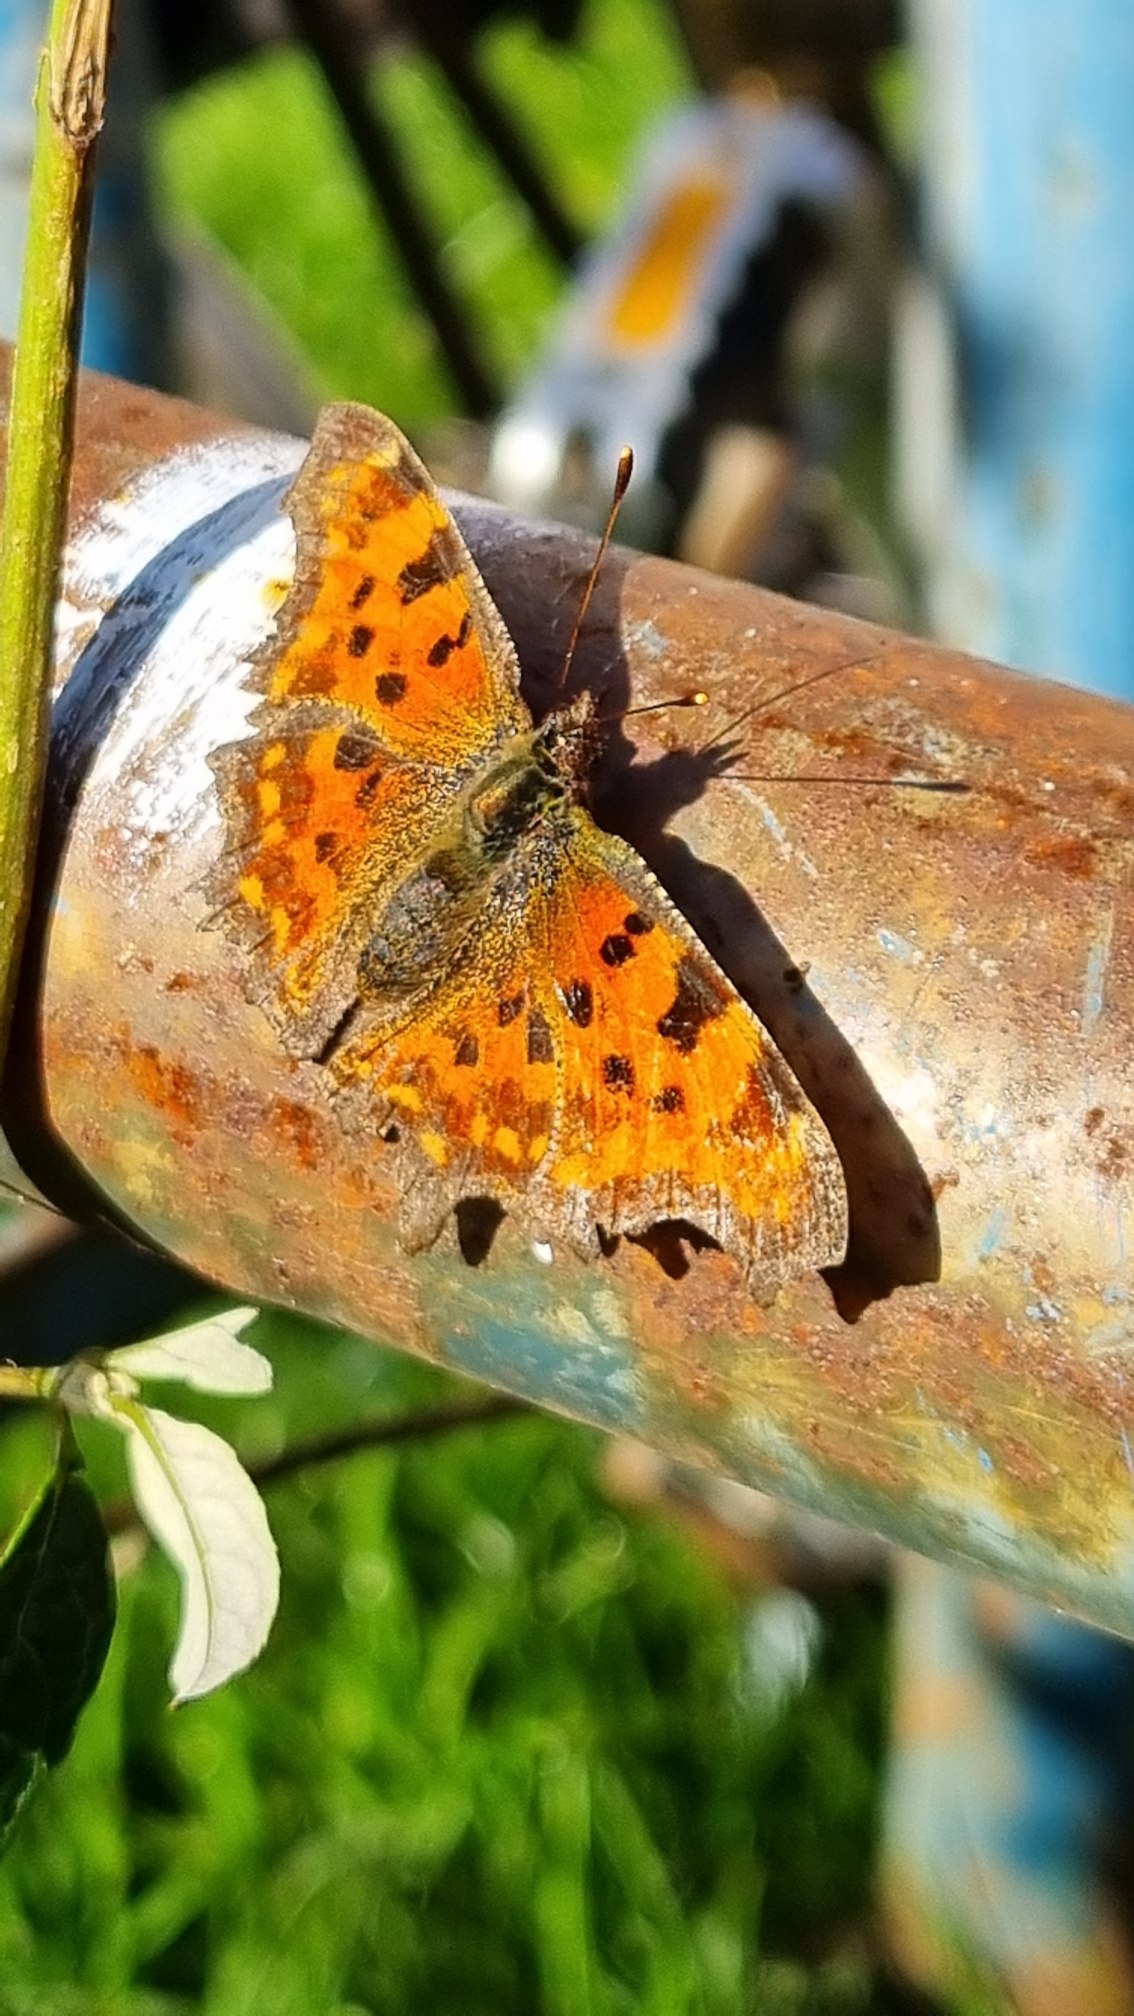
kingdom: Animalia
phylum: Arthropoda
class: Insecta
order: Lepidoptera
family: Nymphalidae
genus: Polygonia
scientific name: Polygonia c-album
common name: Det hvide C
